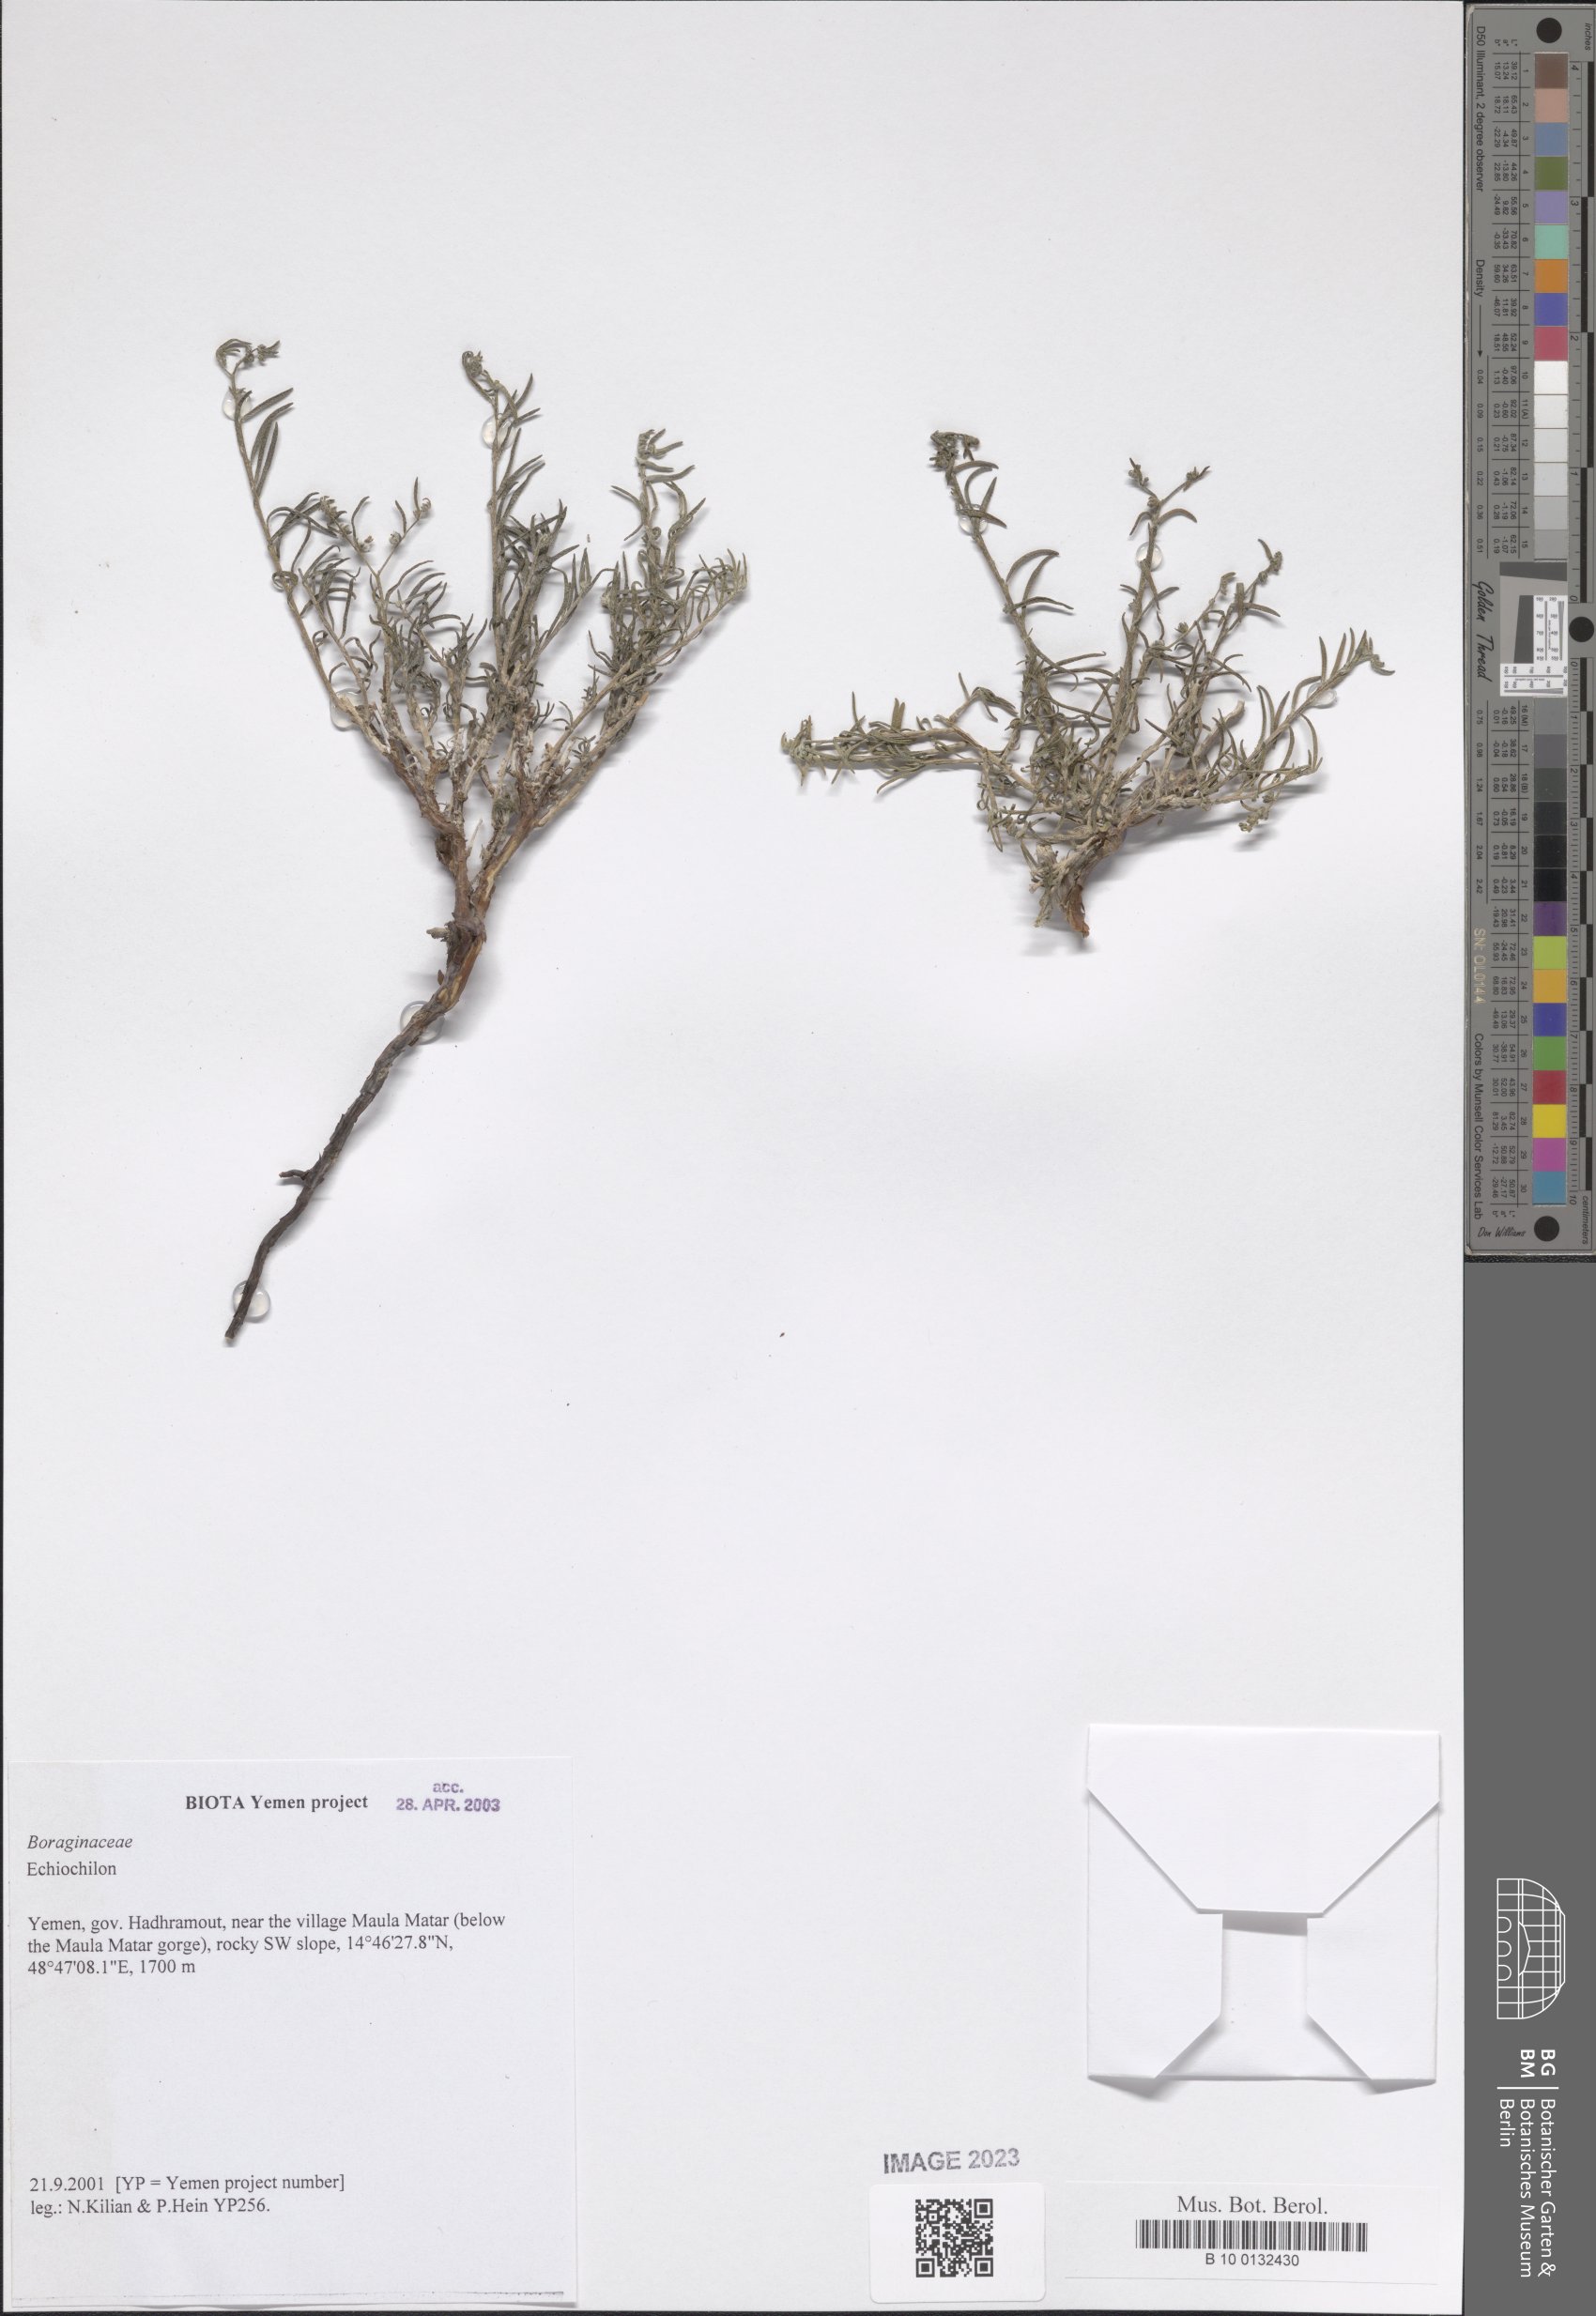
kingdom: Plantae
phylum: Tracheophyta
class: Magnoliopsida
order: Boraginales
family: Boraginaceae
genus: Echiochilon
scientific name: Echiochilon
